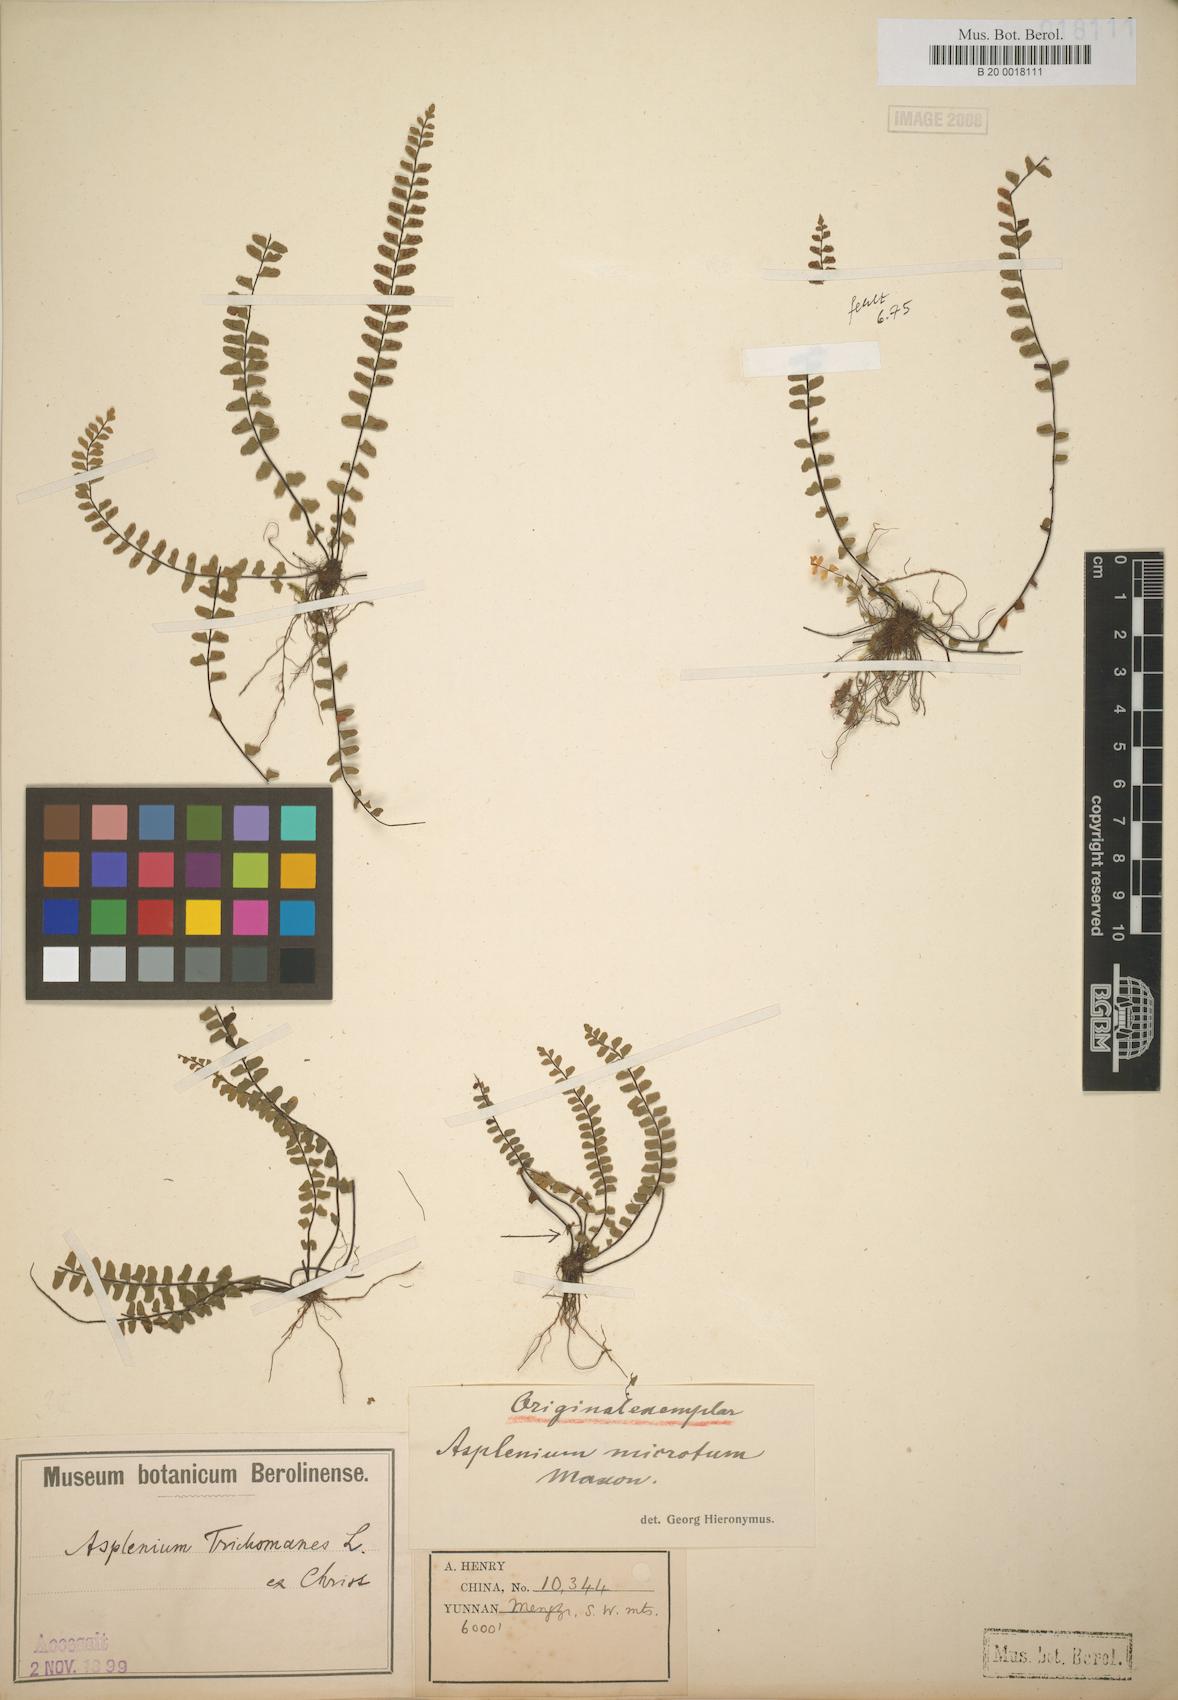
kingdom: Plantae
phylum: Tracheophyta
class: Polypodiopsida
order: Polypodiales
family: Aspleniaceae
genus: Asplenium
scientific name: Asplenium microtum
